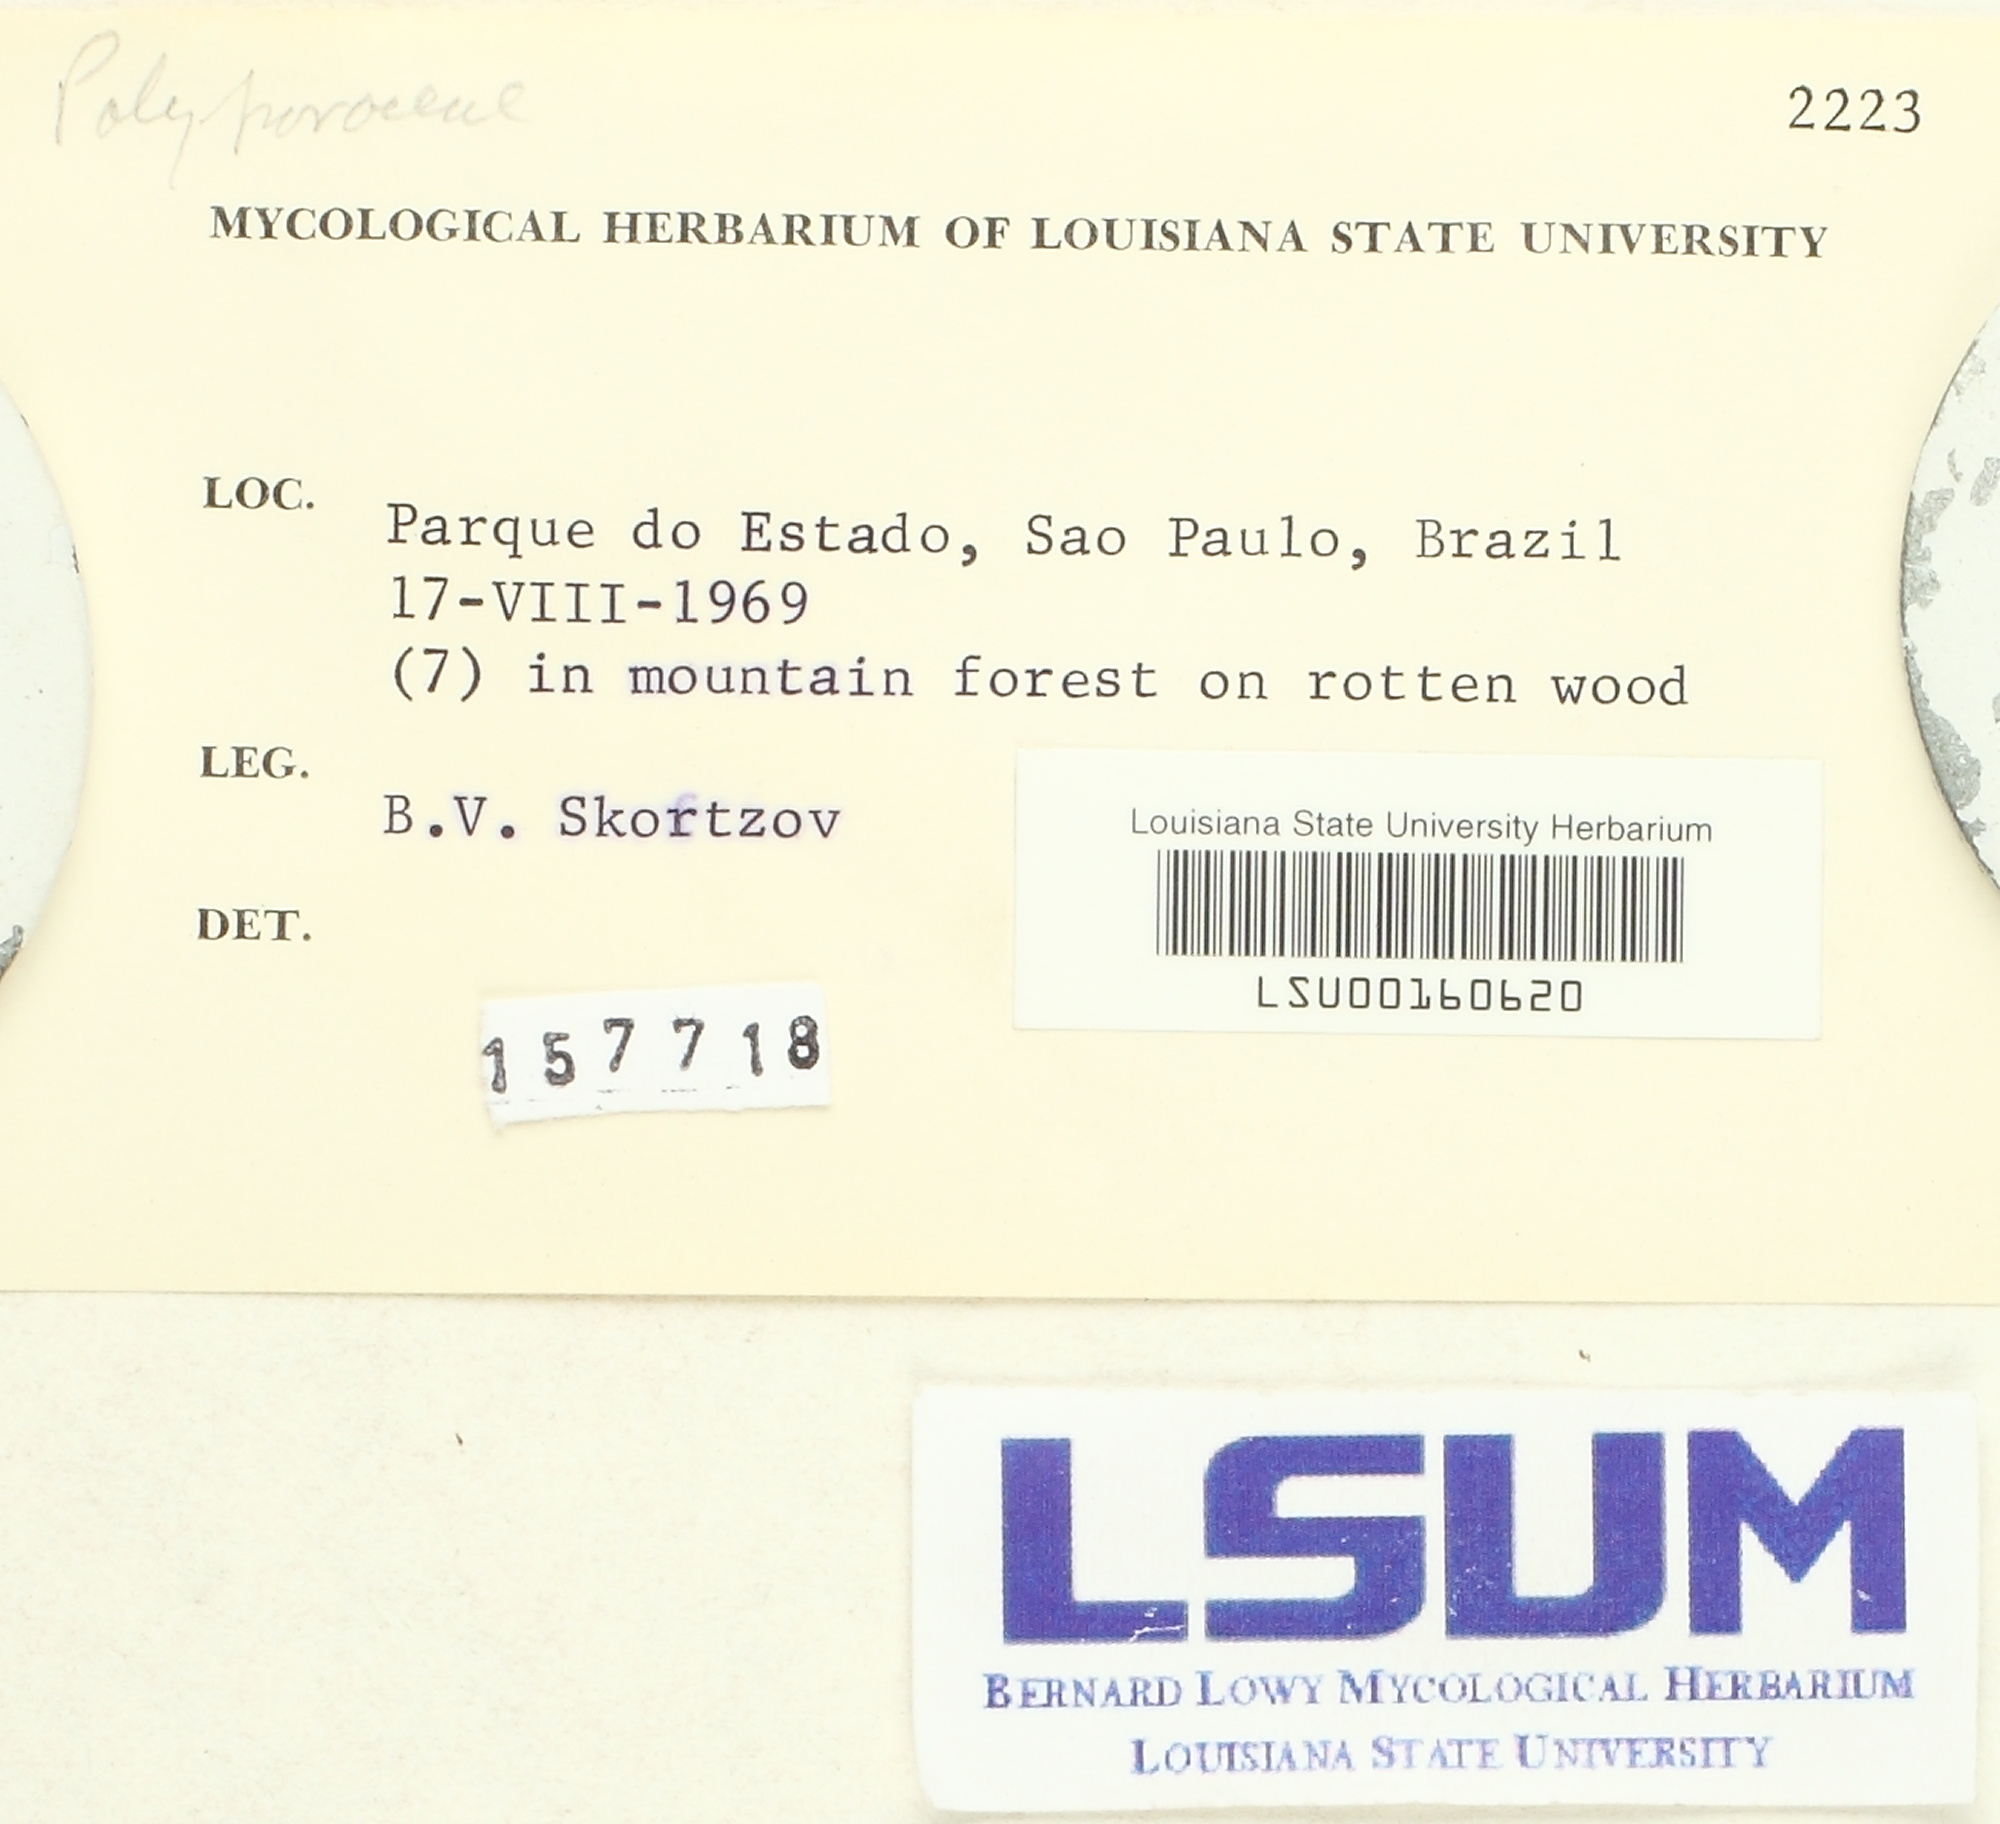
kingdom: Fungi
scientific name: Fungi
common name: Fungi
